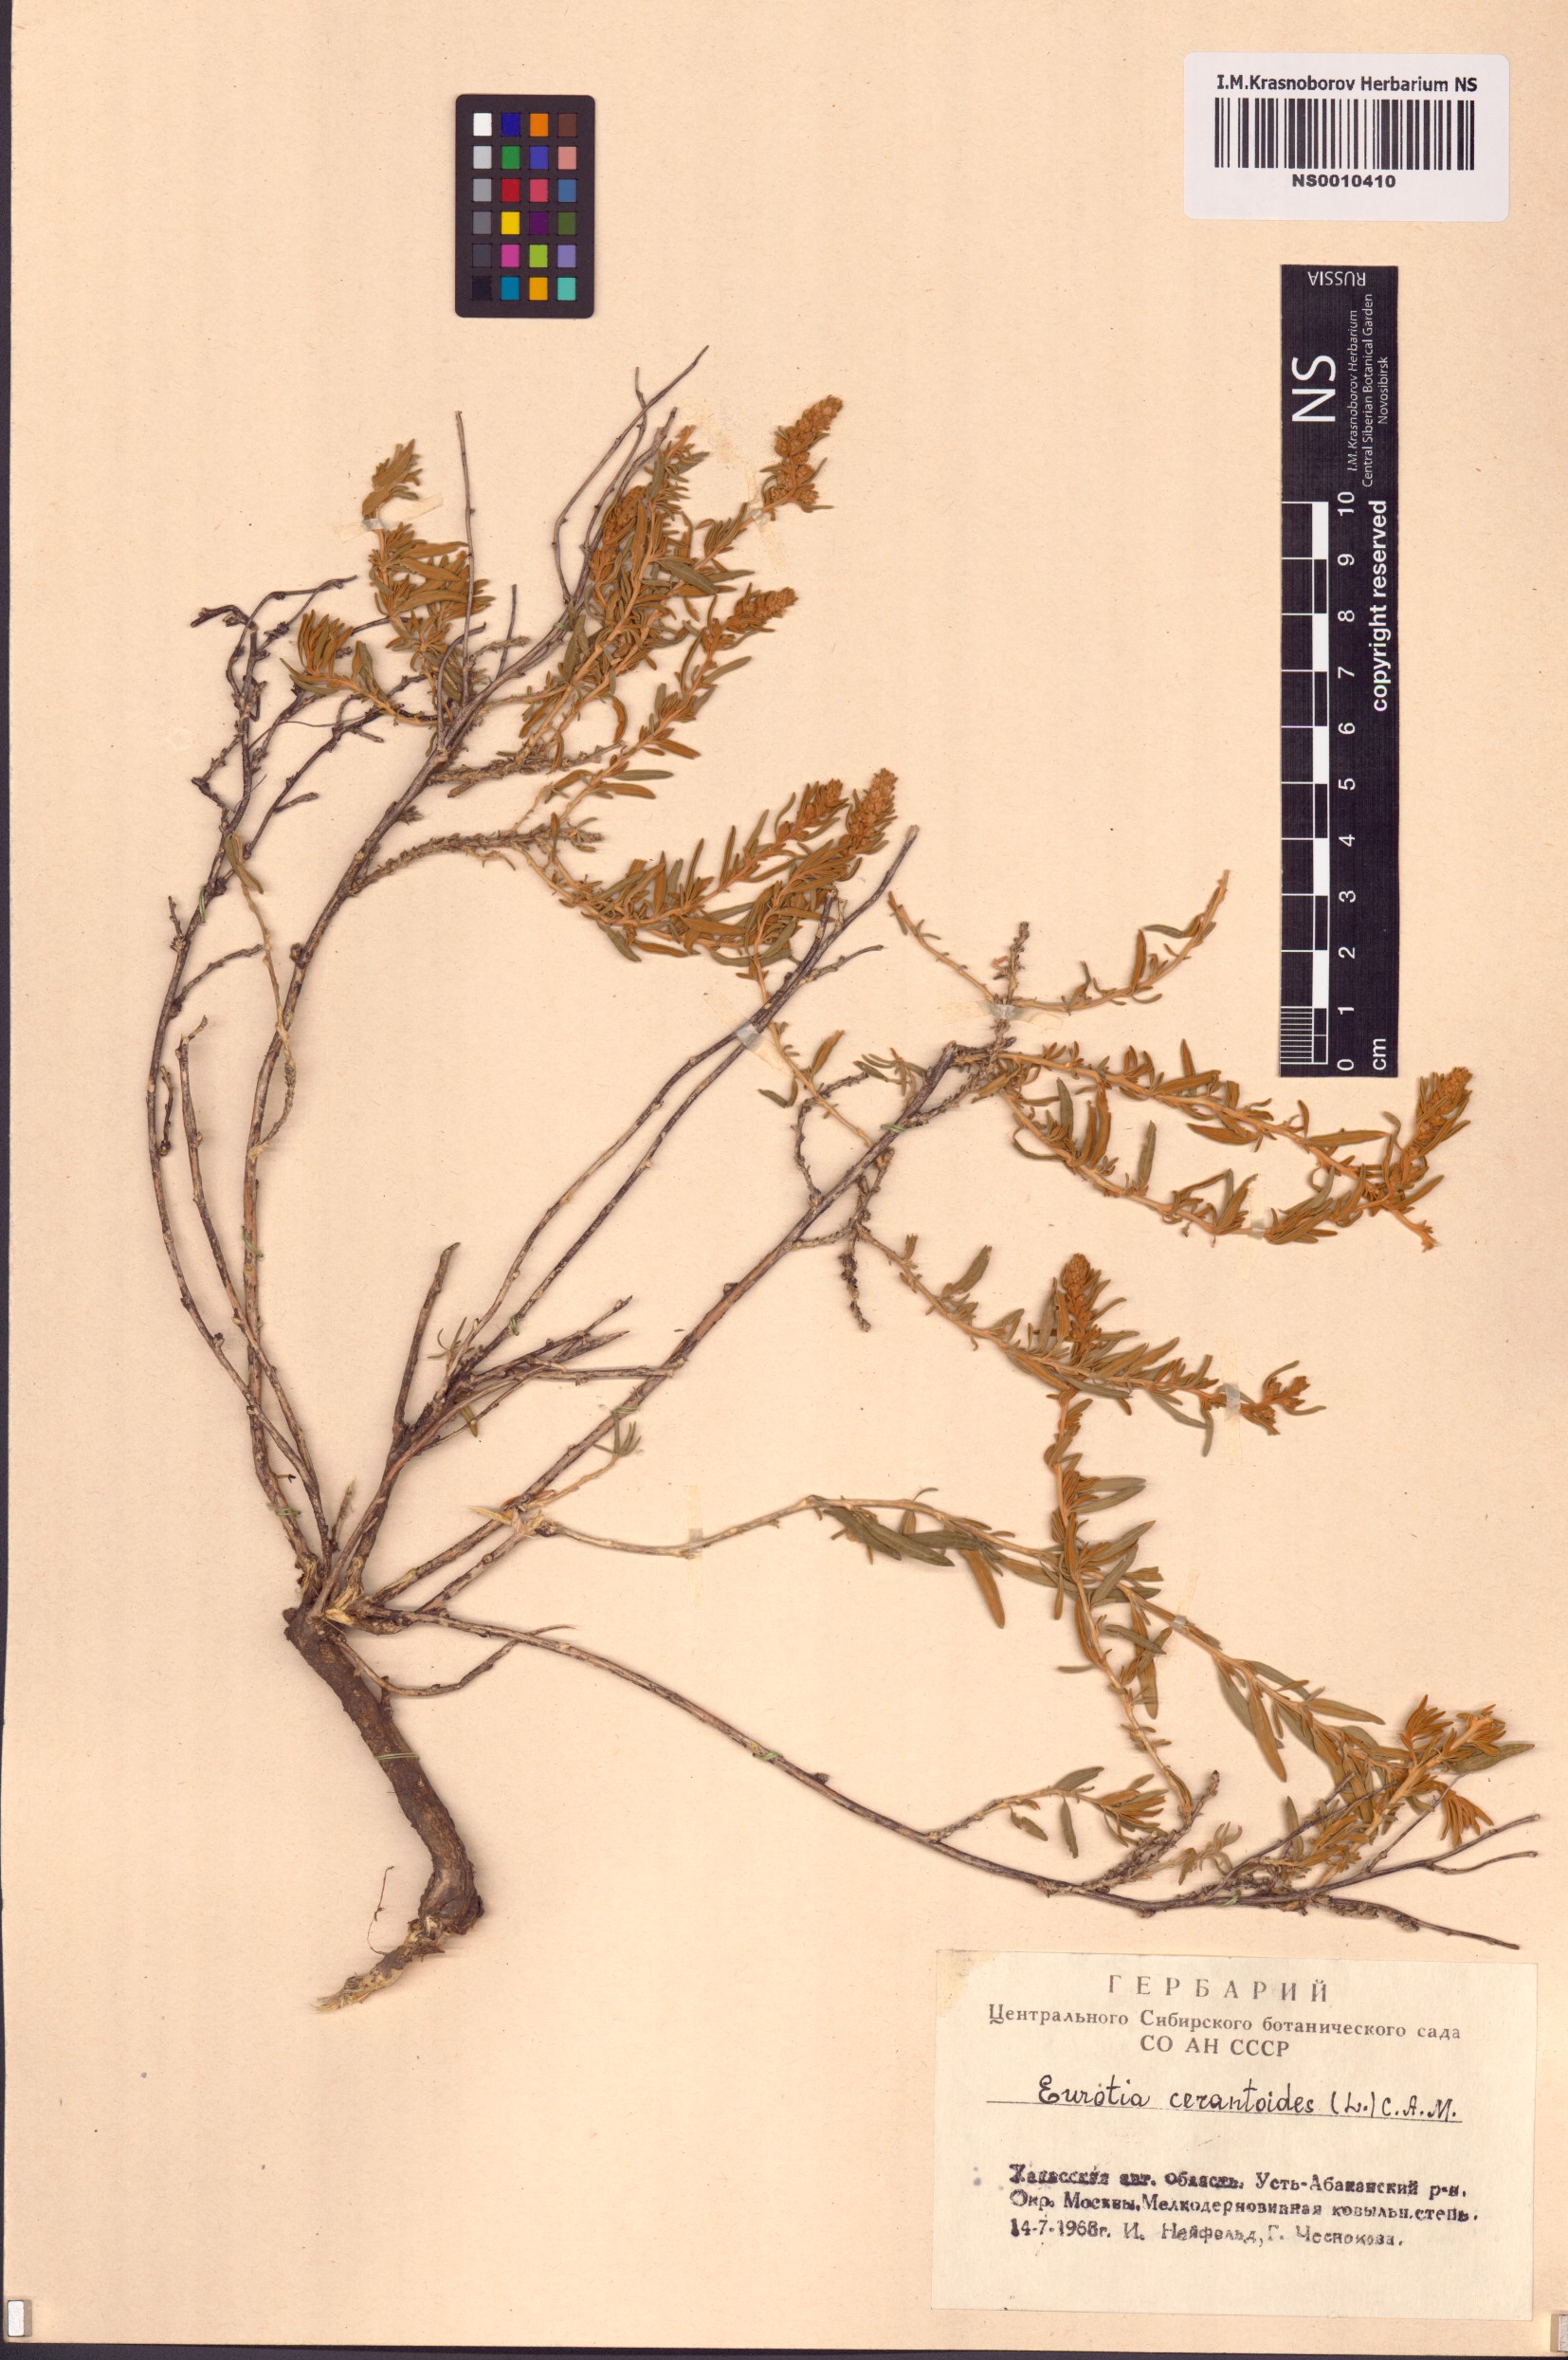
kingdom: Plantae
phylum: Tracheophyta
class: Magnoliopsida
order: Caryophyllales
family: Amaranthaceae
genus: Krascheninnikovia
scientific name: Krascheninnikovia ceratoides
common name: Pamirian winterfat
